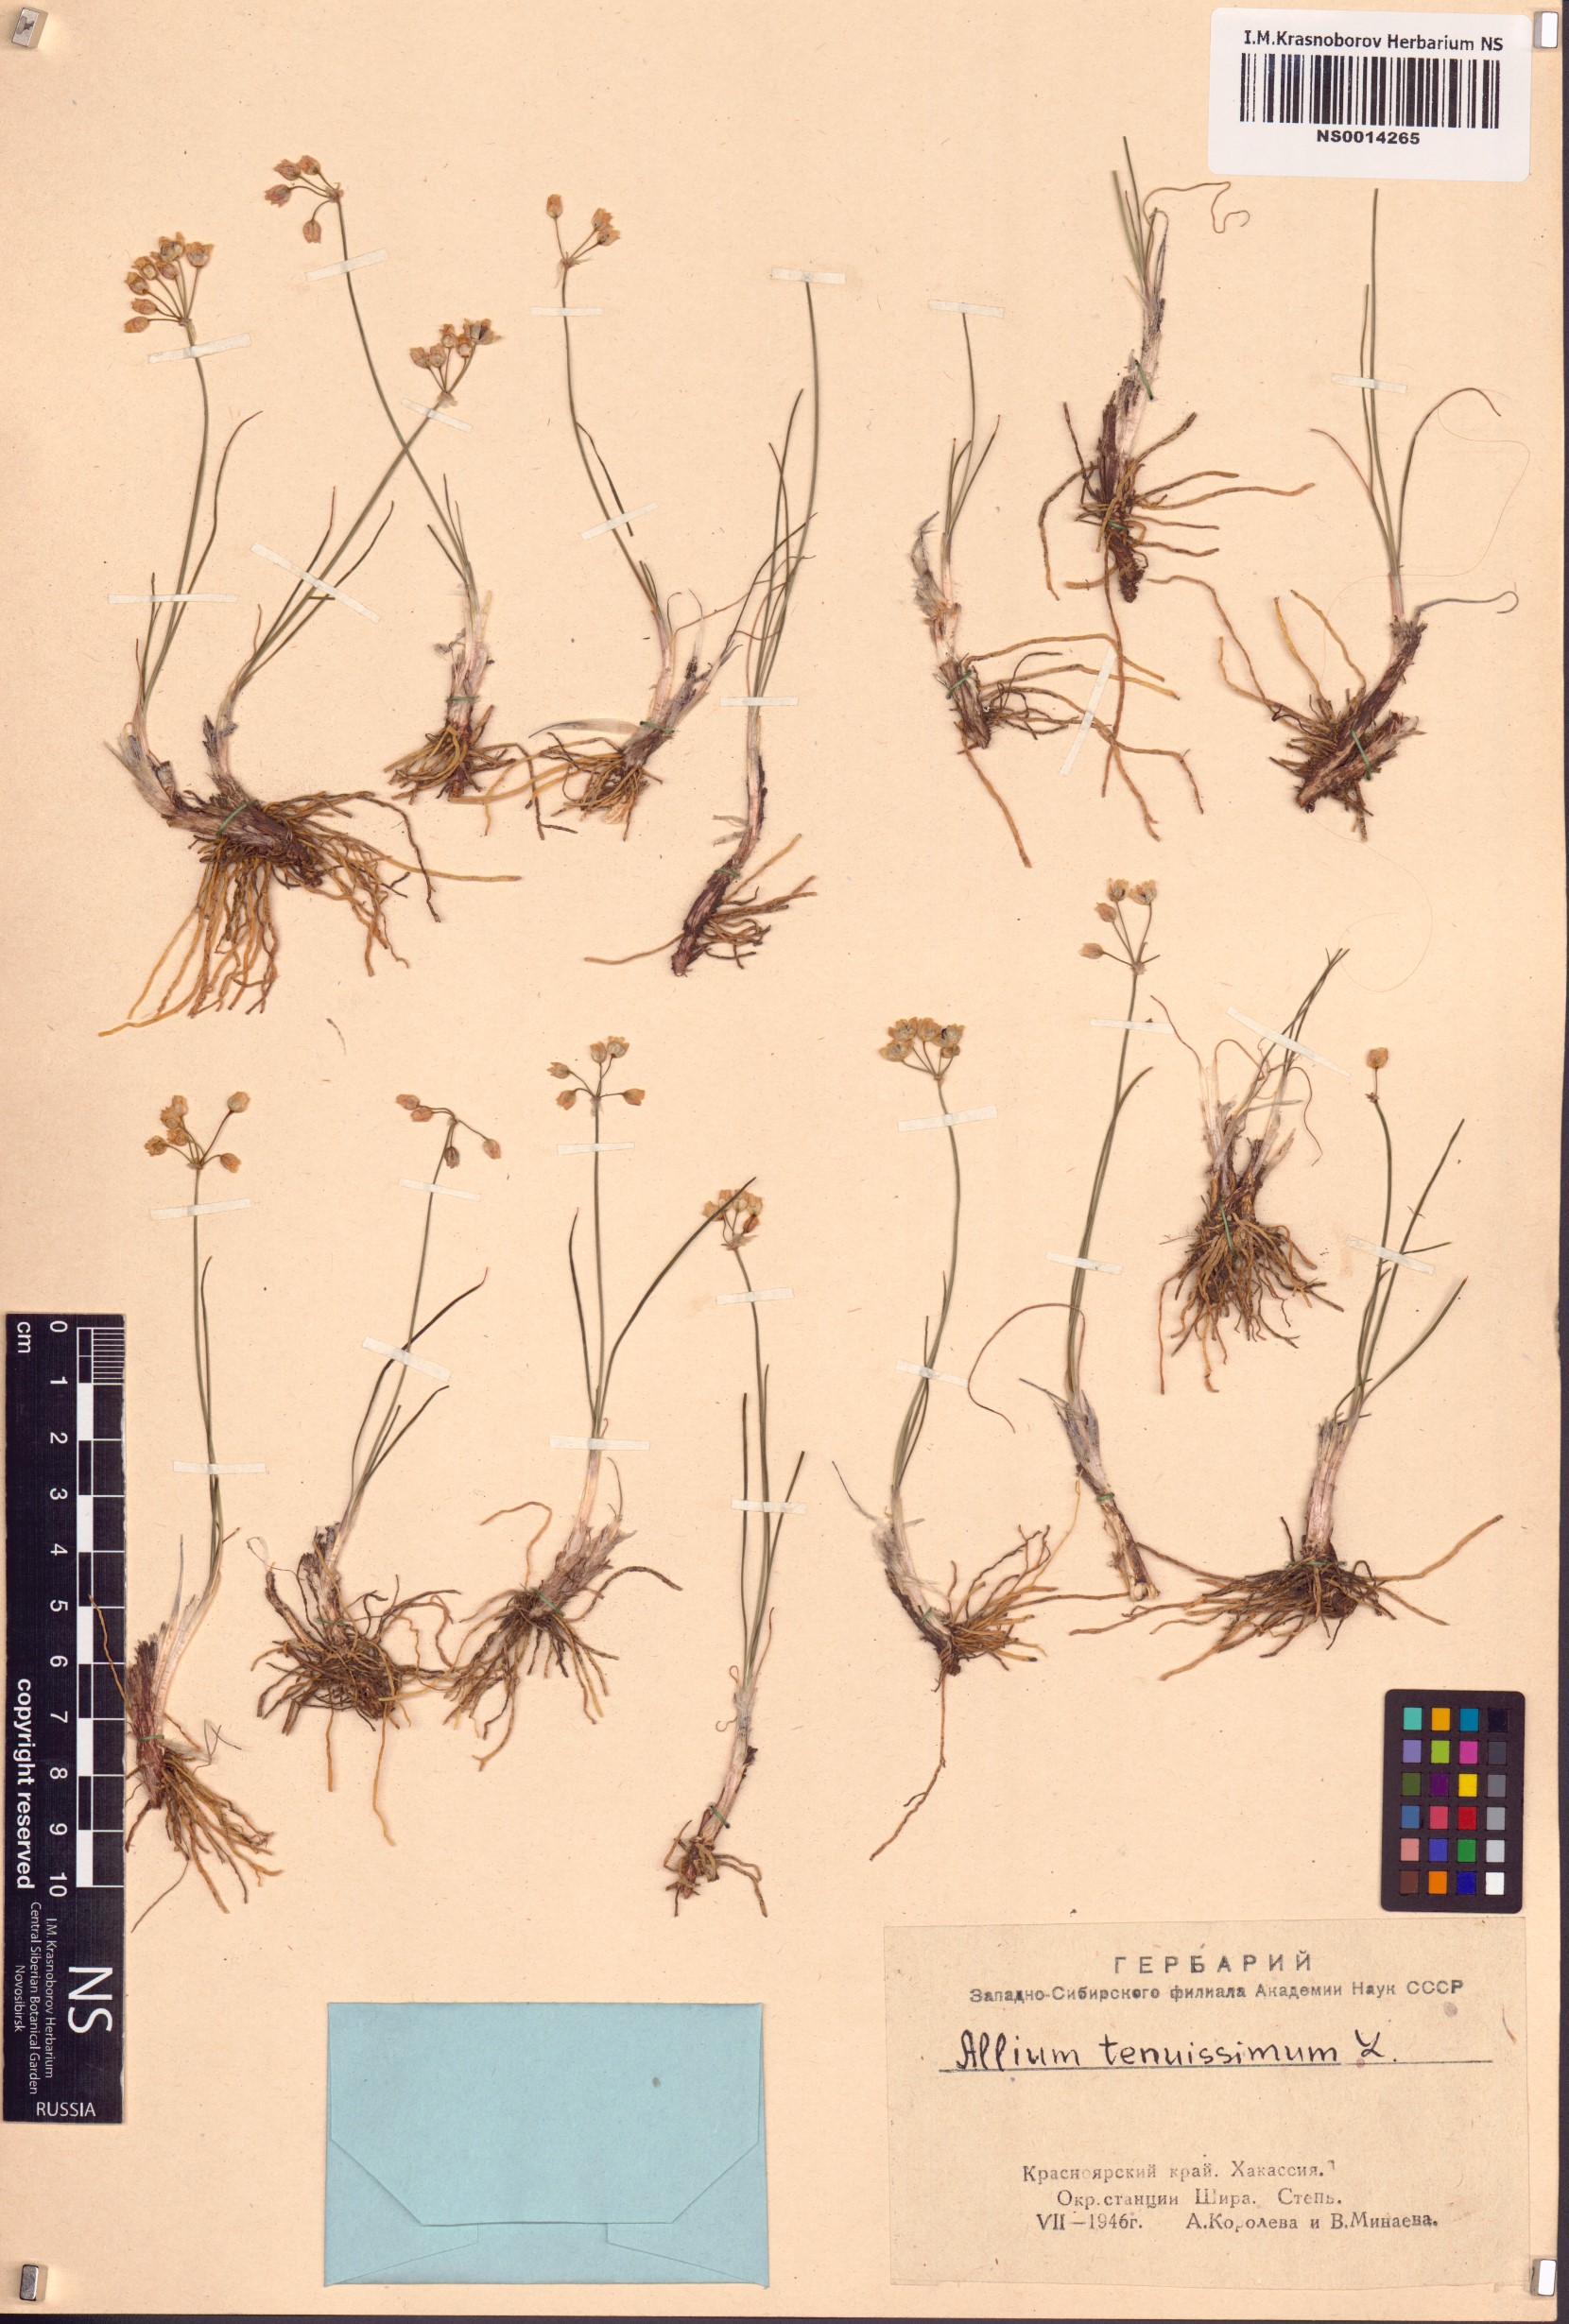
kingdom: Plantae
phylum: Tracheophyta
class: Liliopsida
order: Asparagales
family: Amaryllidaceae
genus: Allium
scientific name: Allium tenuissimum
